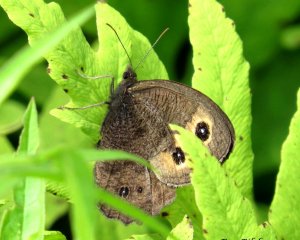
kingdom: Animalia
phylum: Arthropoda
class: Insecta
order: Lepidoptera
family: Nymphalidae
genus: Cercyonis
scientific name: Cercyonis pegala
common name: Common Wood-Nymph
